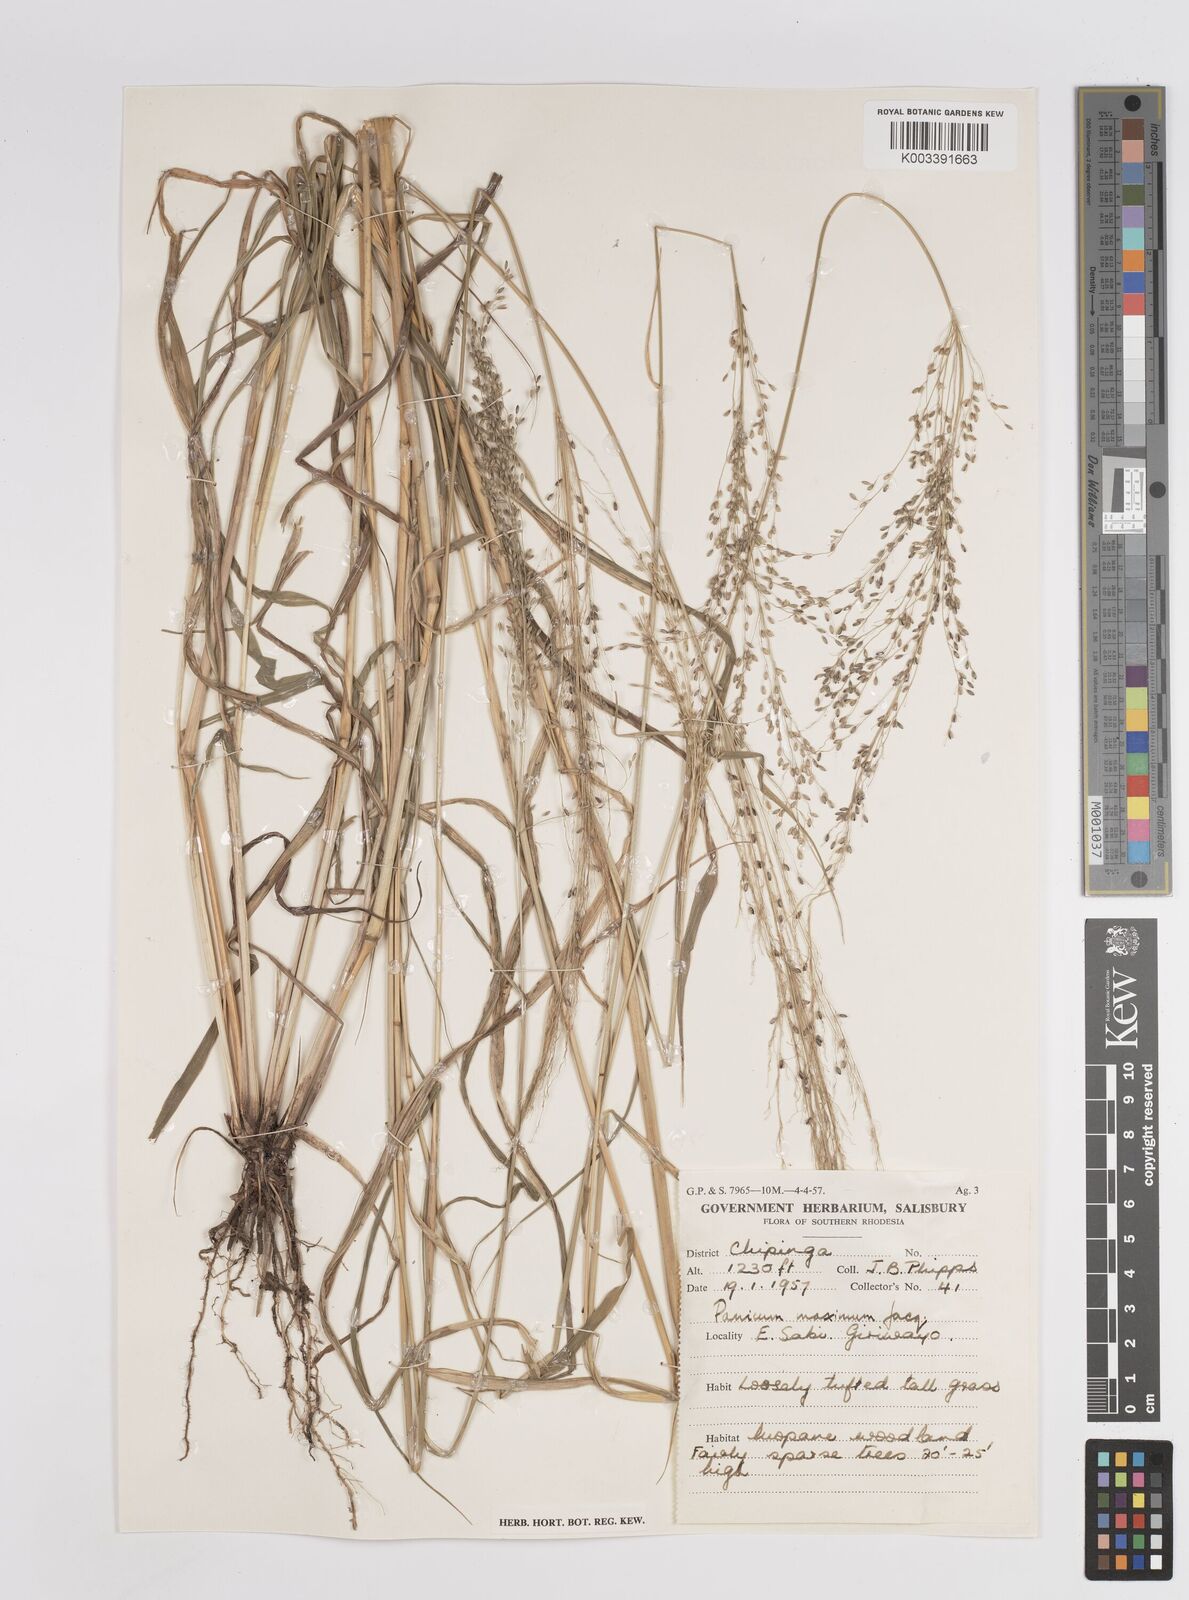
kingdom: Plantae
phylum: Tracheophyta
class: Liliopsida
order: Poales
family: Poaceae
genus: Megathyrsus
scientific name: Megathyrsus maximus
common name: Guineagrass
